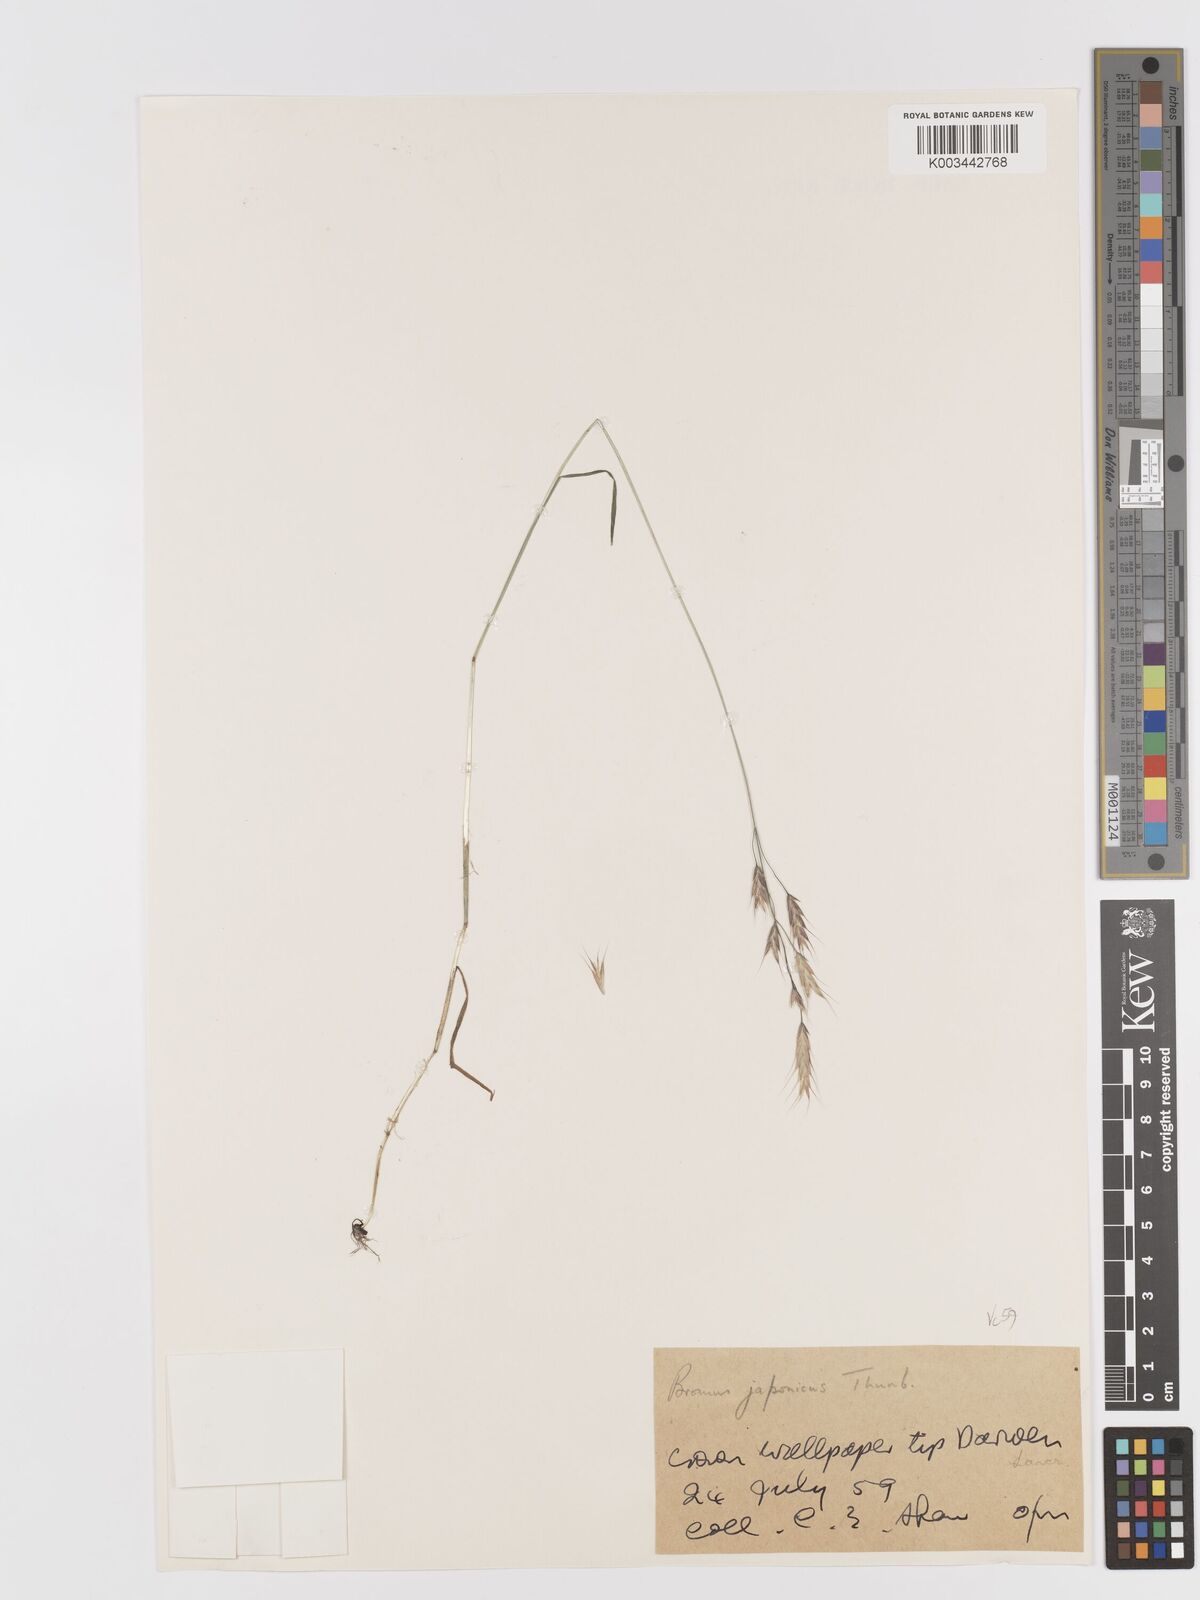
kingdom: Plantae
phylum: Tracheophyta
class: Liliopsida
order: Poales
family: Poaceae
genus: Bromus
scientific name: Bromus japonicus
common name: Japanese brome
